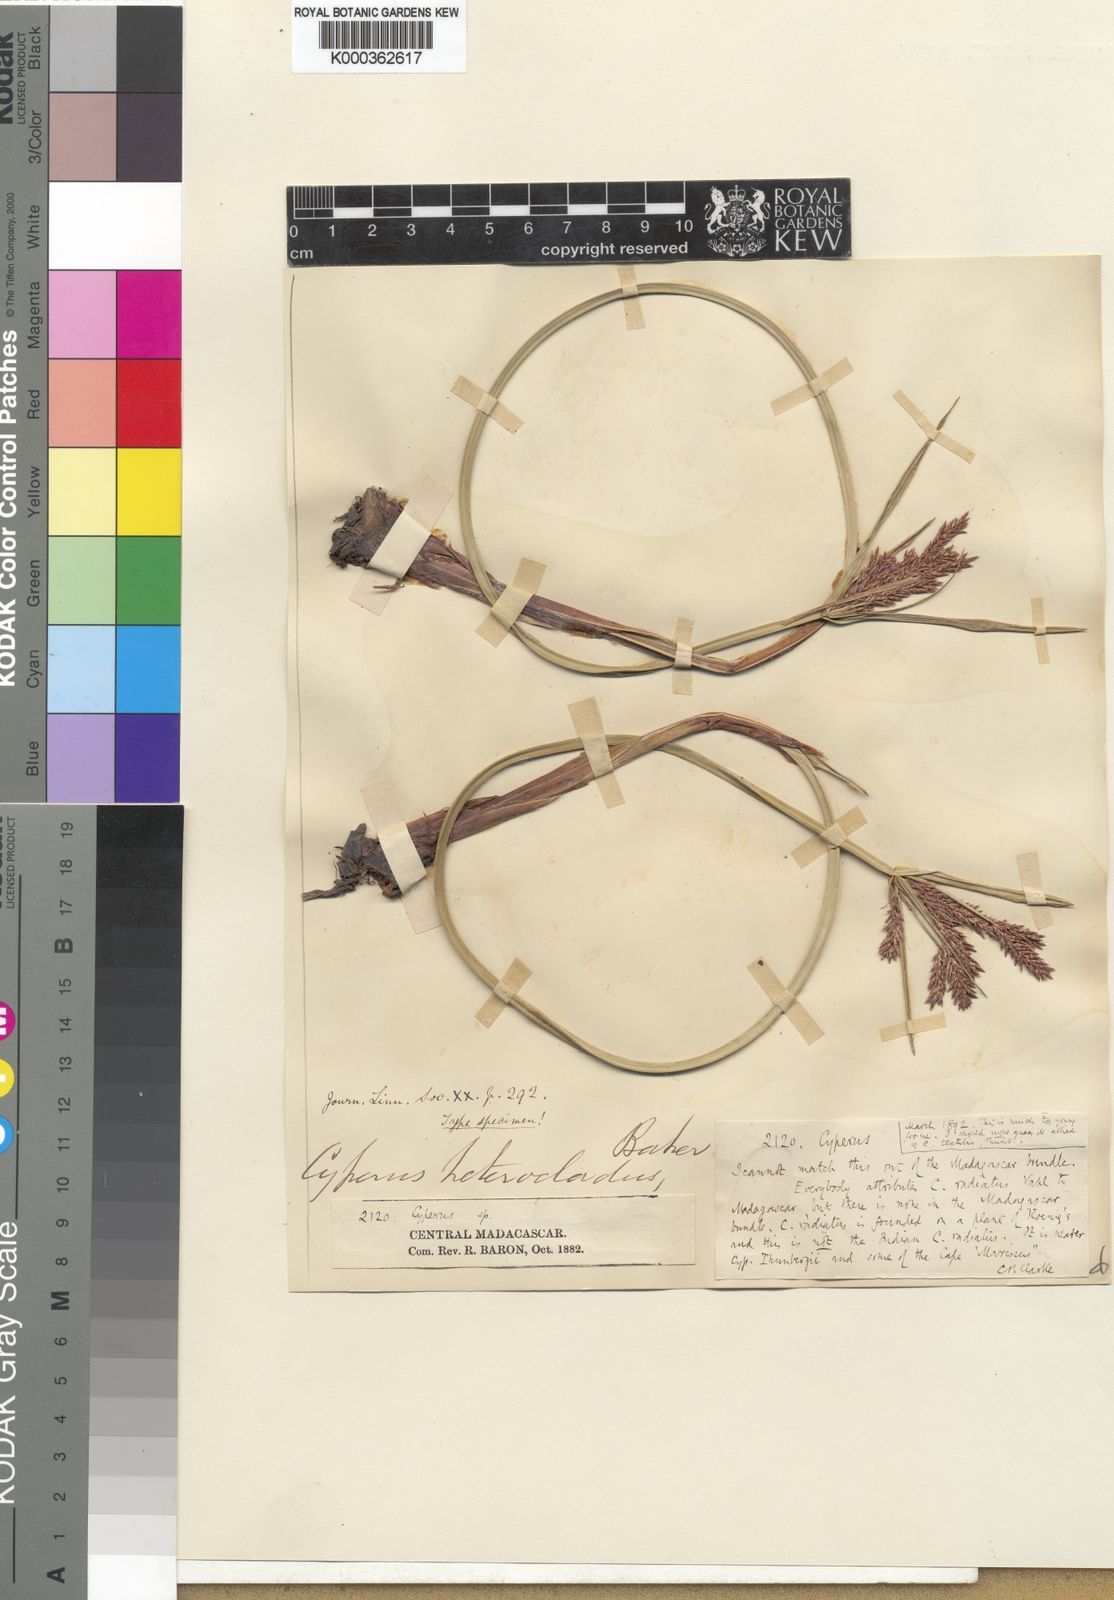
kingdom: Plantae
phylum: Tracheophyta
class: Liliopsida
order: Poales
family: Cyperaceae
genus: Cyperus
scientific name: Cyperus heterocladus
